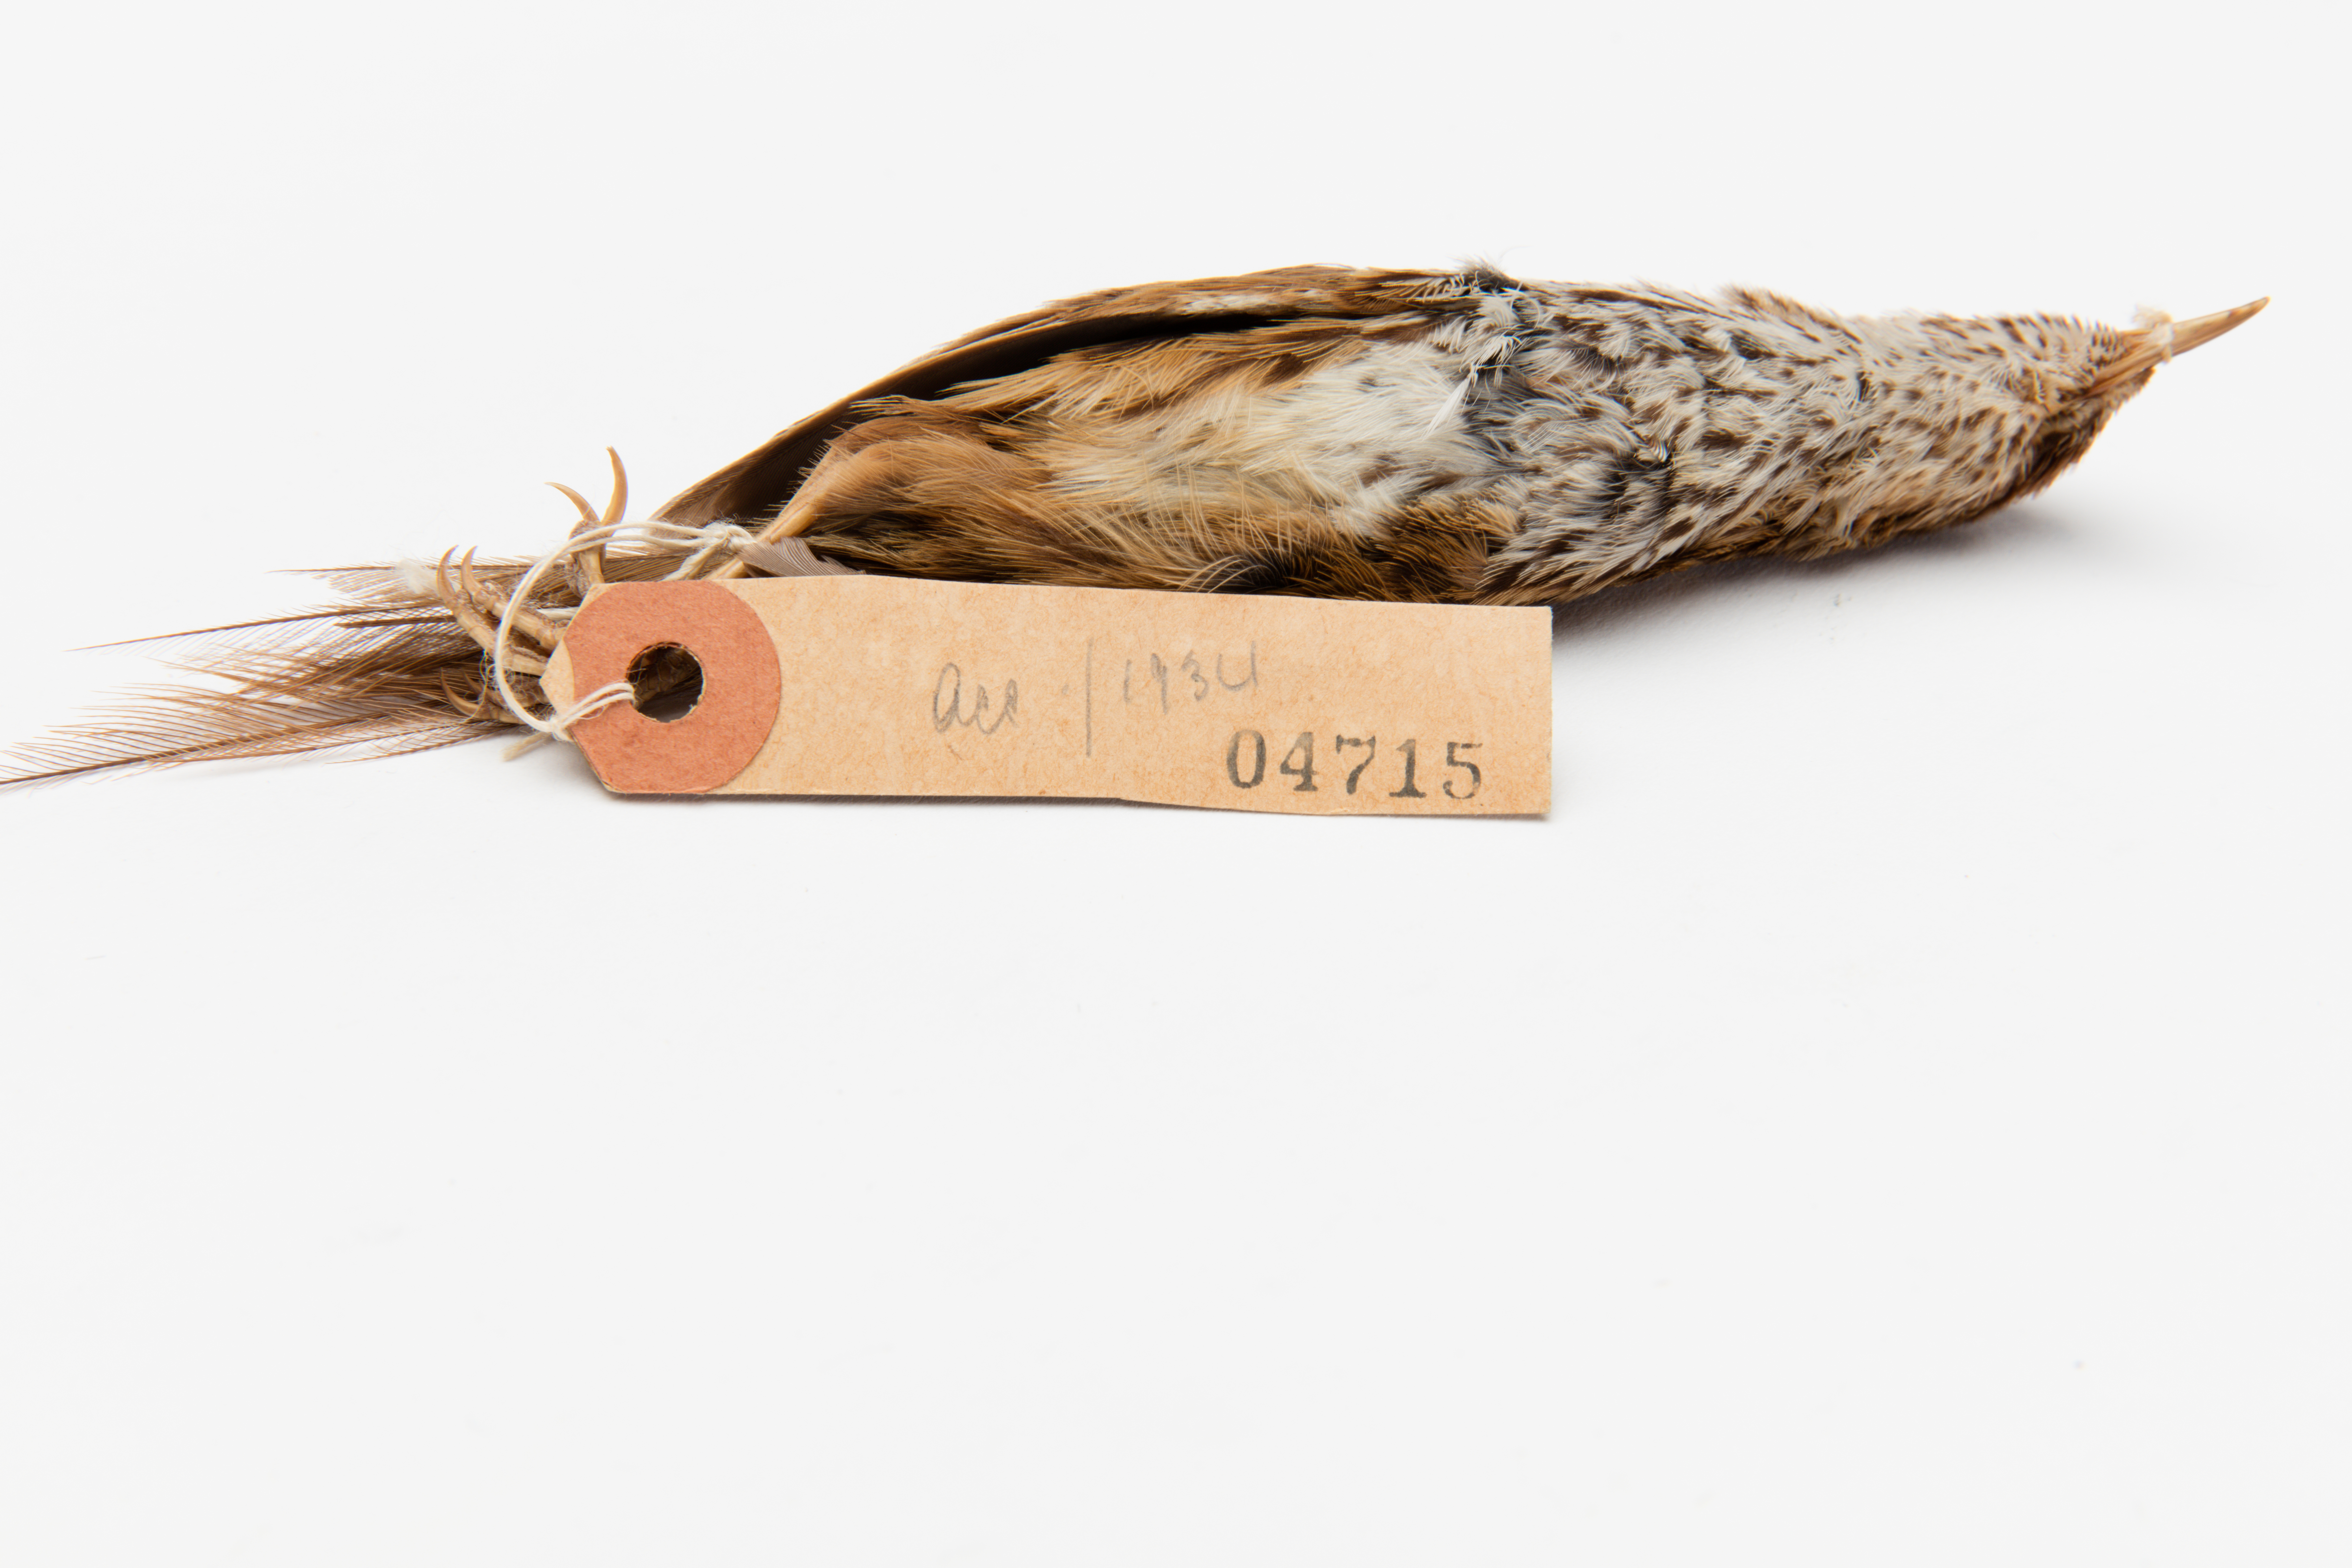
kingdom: Animalia
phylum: Chordata
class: Aves
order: Passeriformes
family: Locustellidae
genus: Megalurus
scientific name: Megalurus punctatus
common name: New zealand fernbird
